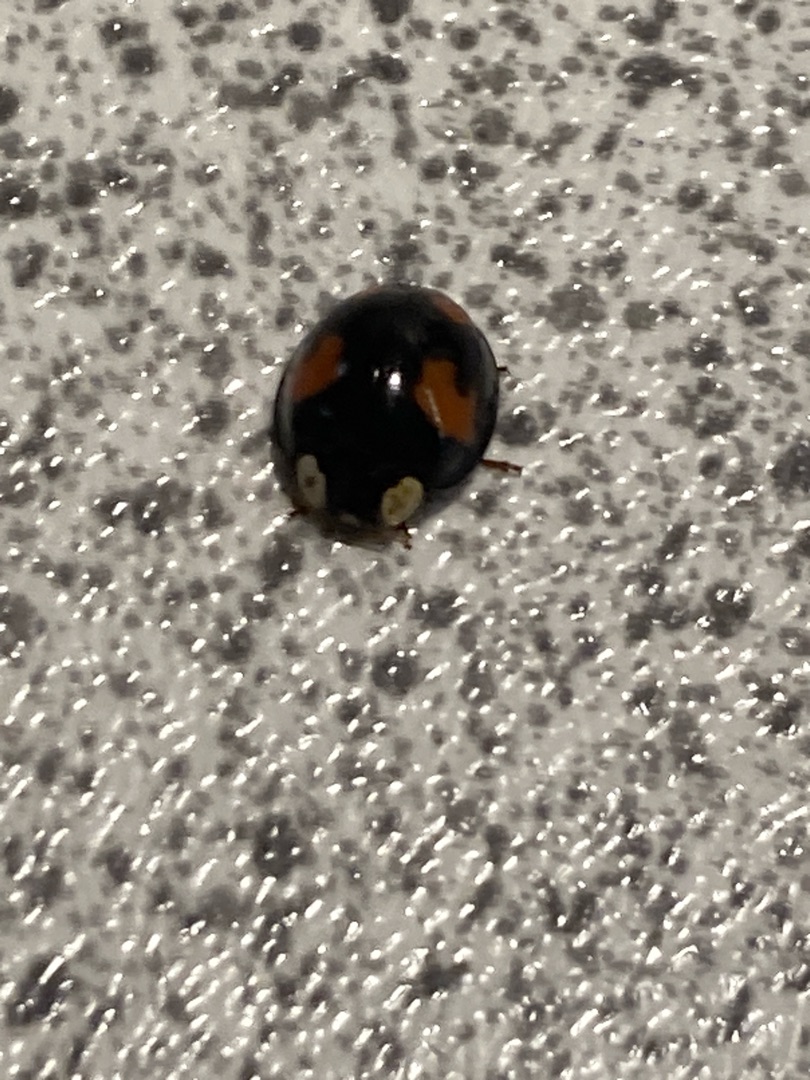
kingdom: Animalia
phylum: Arthropoda
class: Insecta
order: Coleoptera
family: Coccinellidae
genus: Harmonia
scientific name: Harmonia axyridis
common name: Harlekinmariehøne
